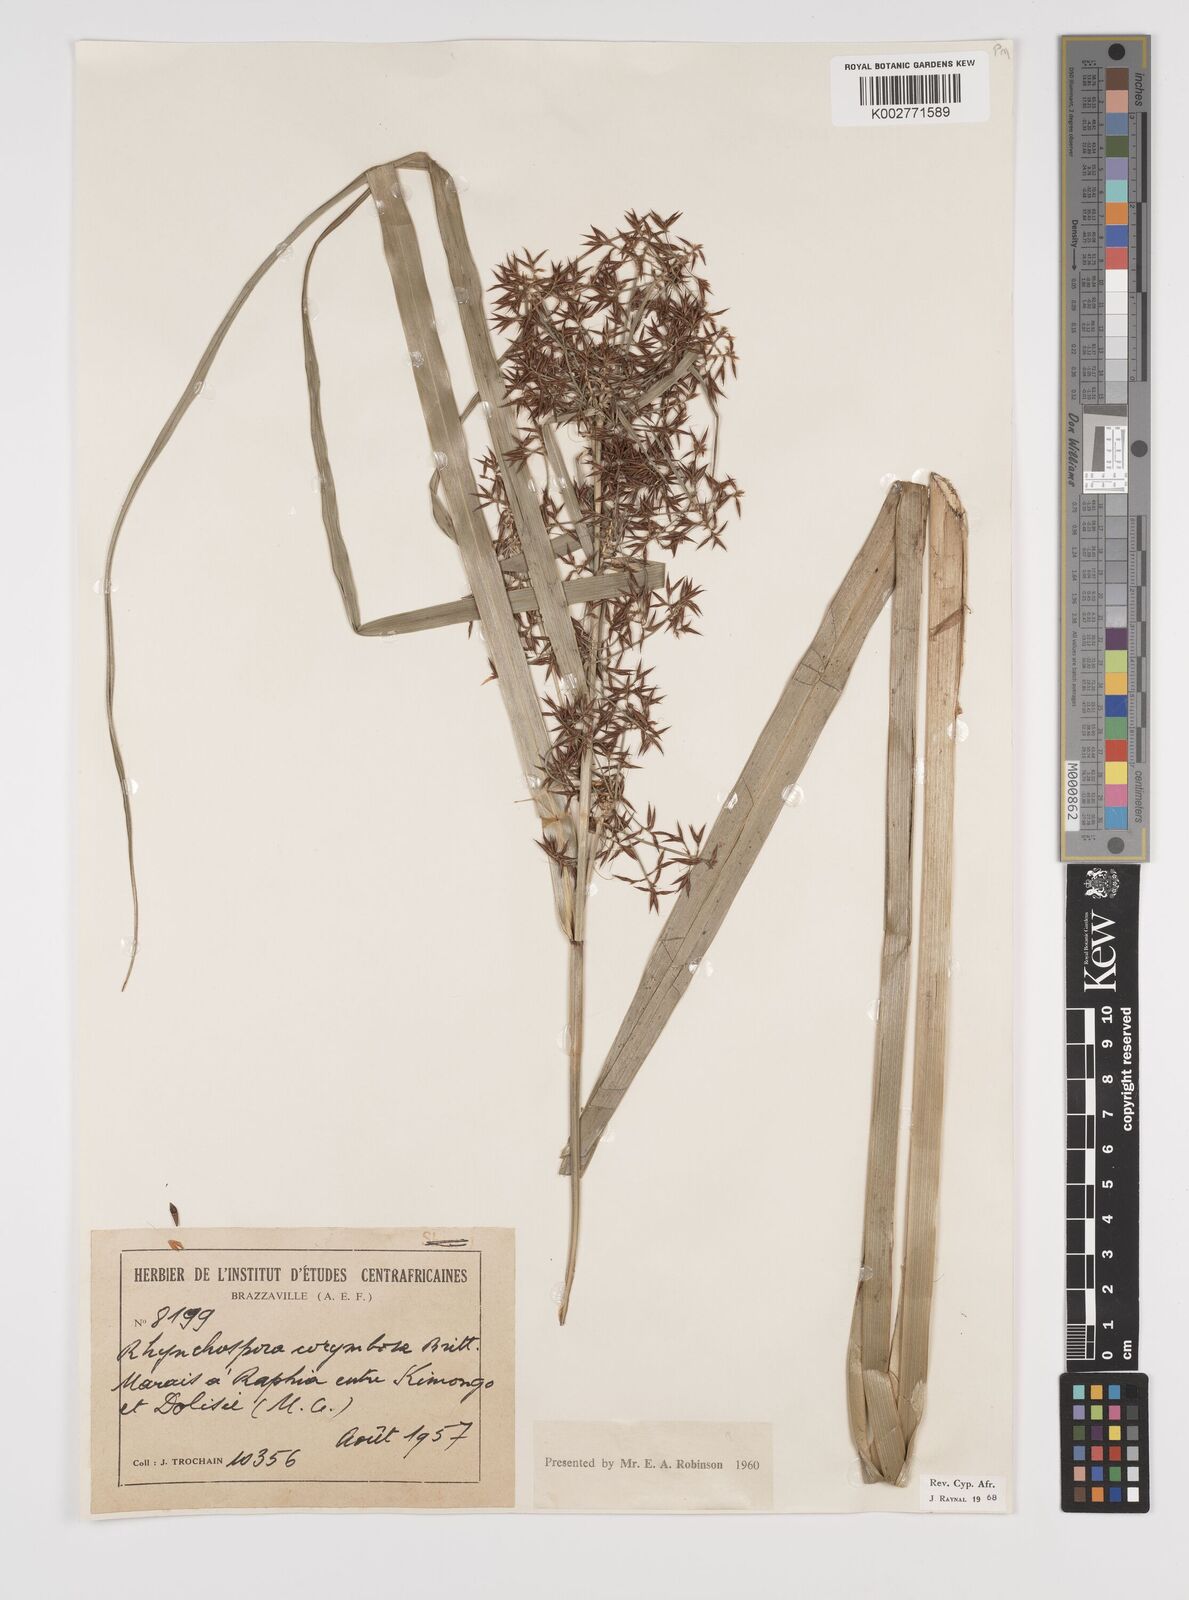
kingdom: Plantae
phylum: Tracheophyta
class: Liliopsida
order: Poales
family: Cyperaceae
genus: Rhynchospora
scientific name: Rhynchospora corymbosa
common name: Golden beak sedge
